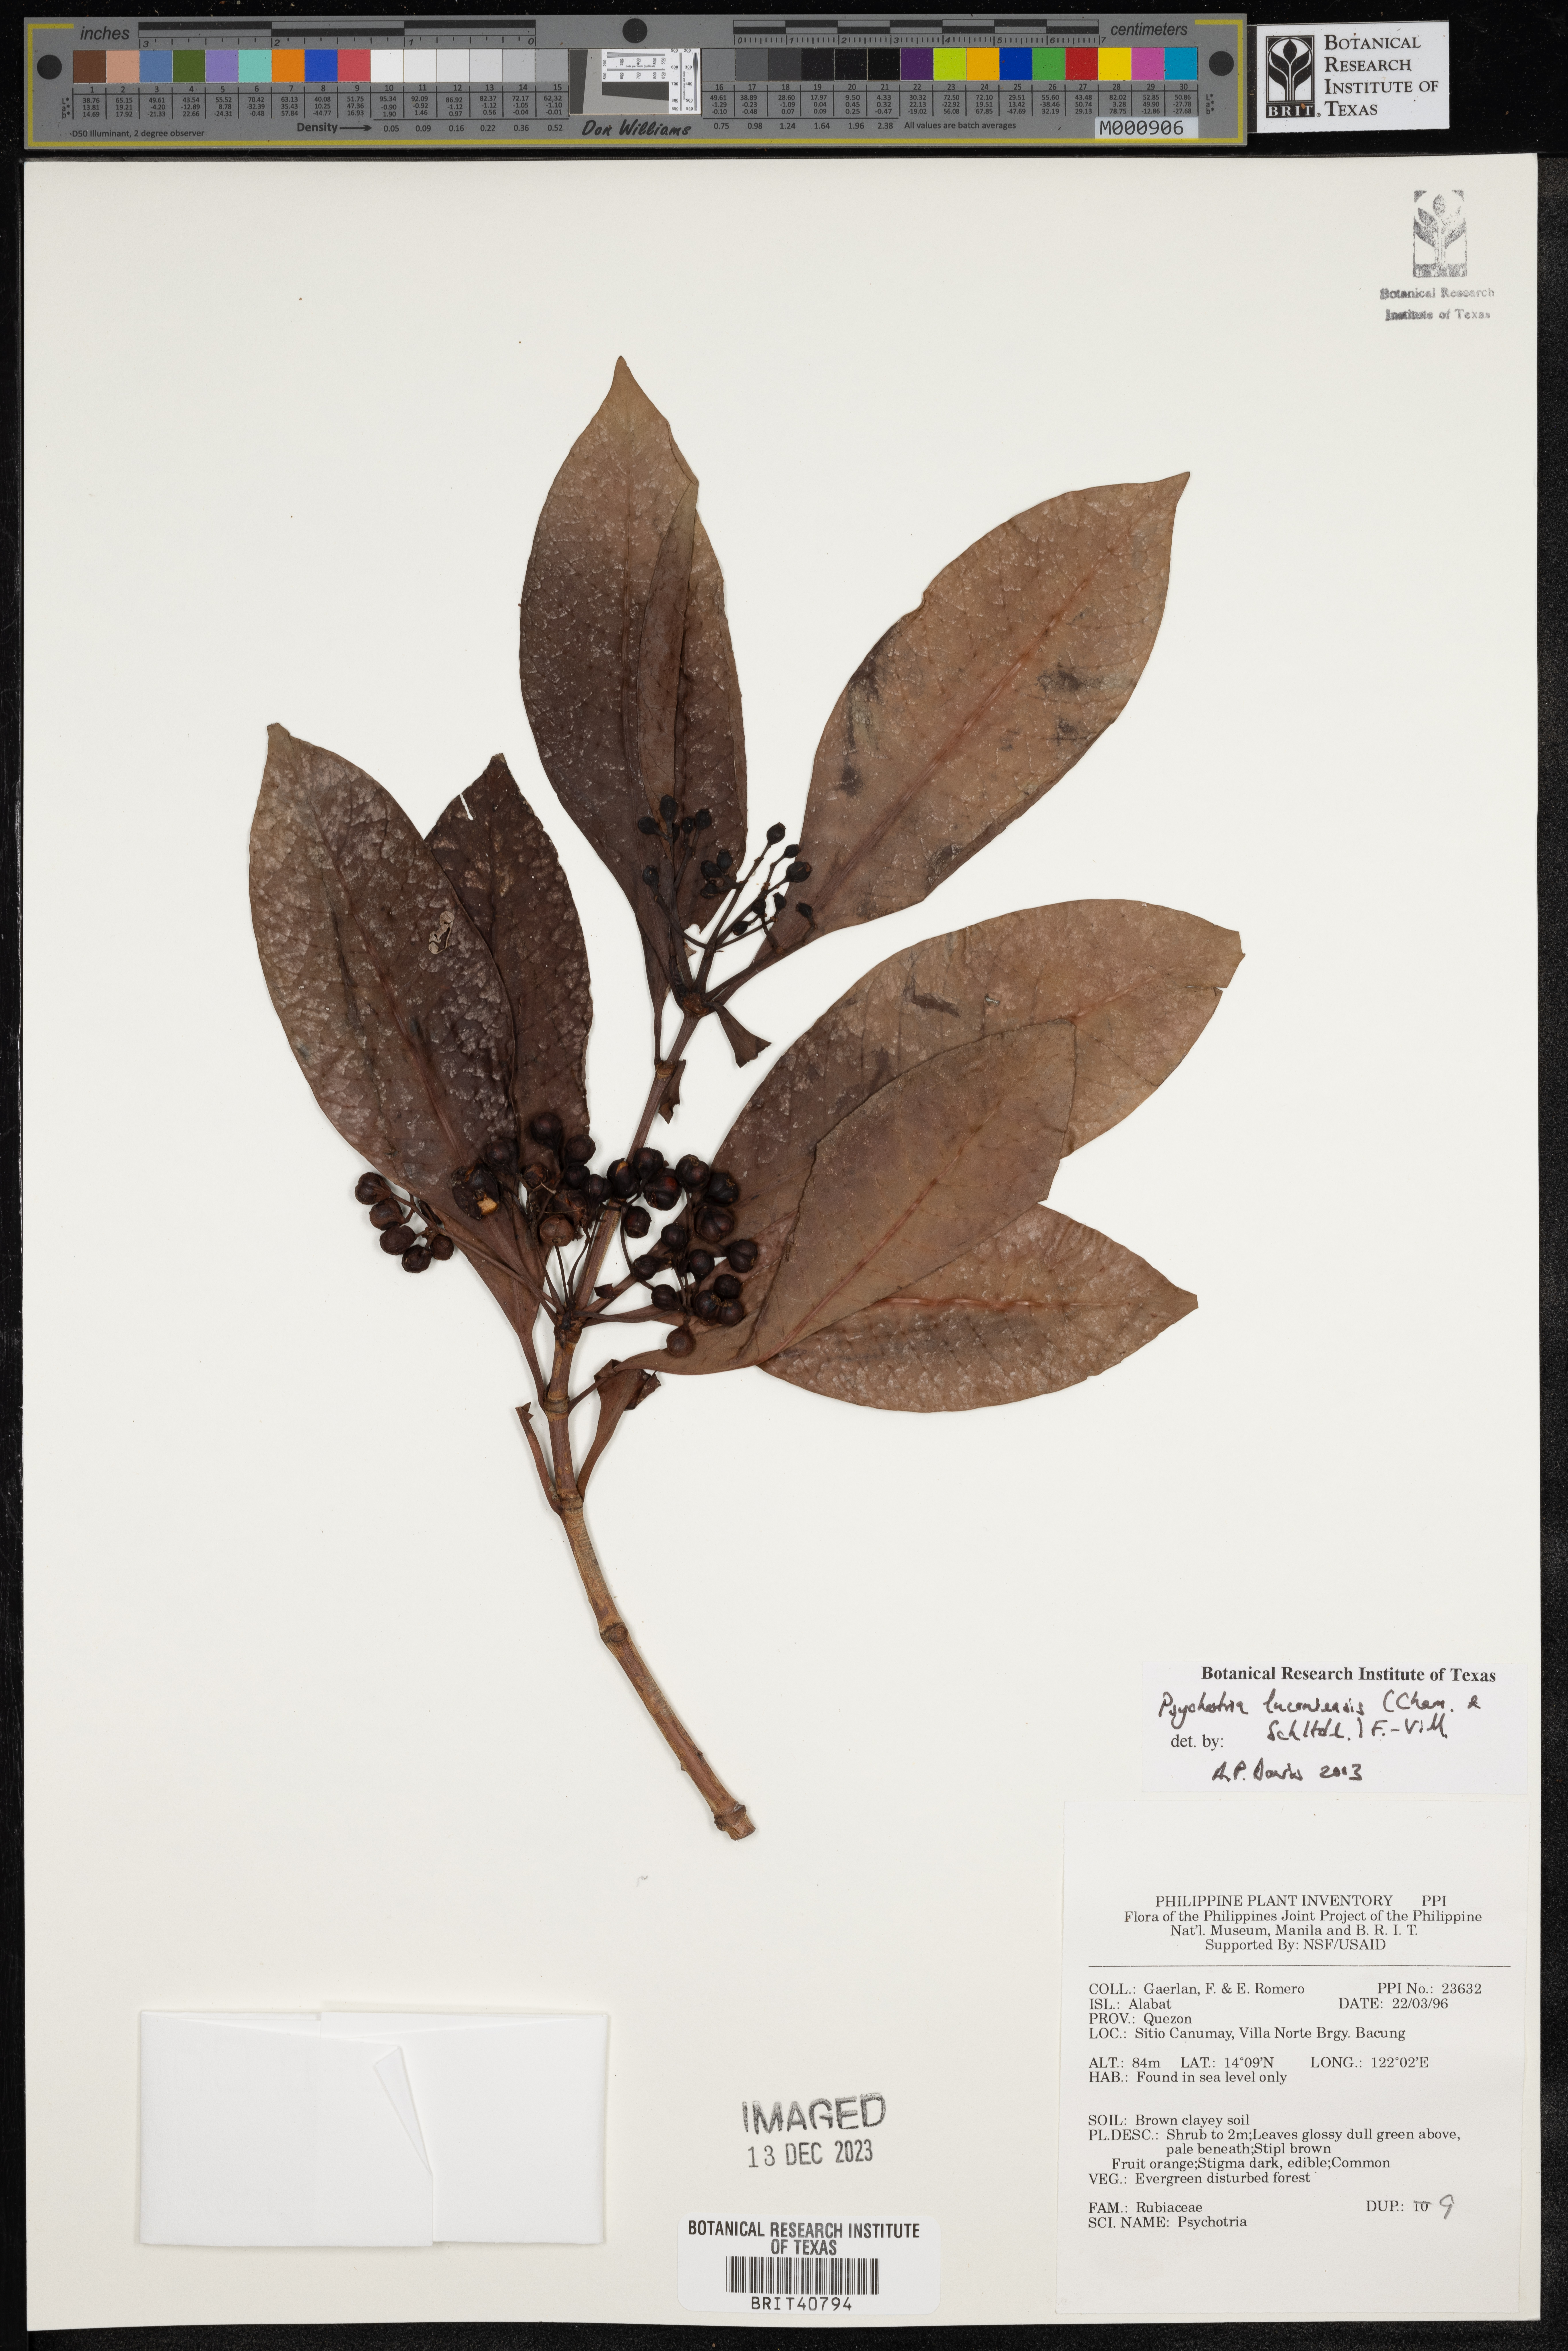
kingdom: Plantae
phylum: Tracheophyta
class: Magnoliopsida
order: Gentianales
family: Rubiaceae
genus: Psychotria
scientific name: Psychotria luzoniensis
